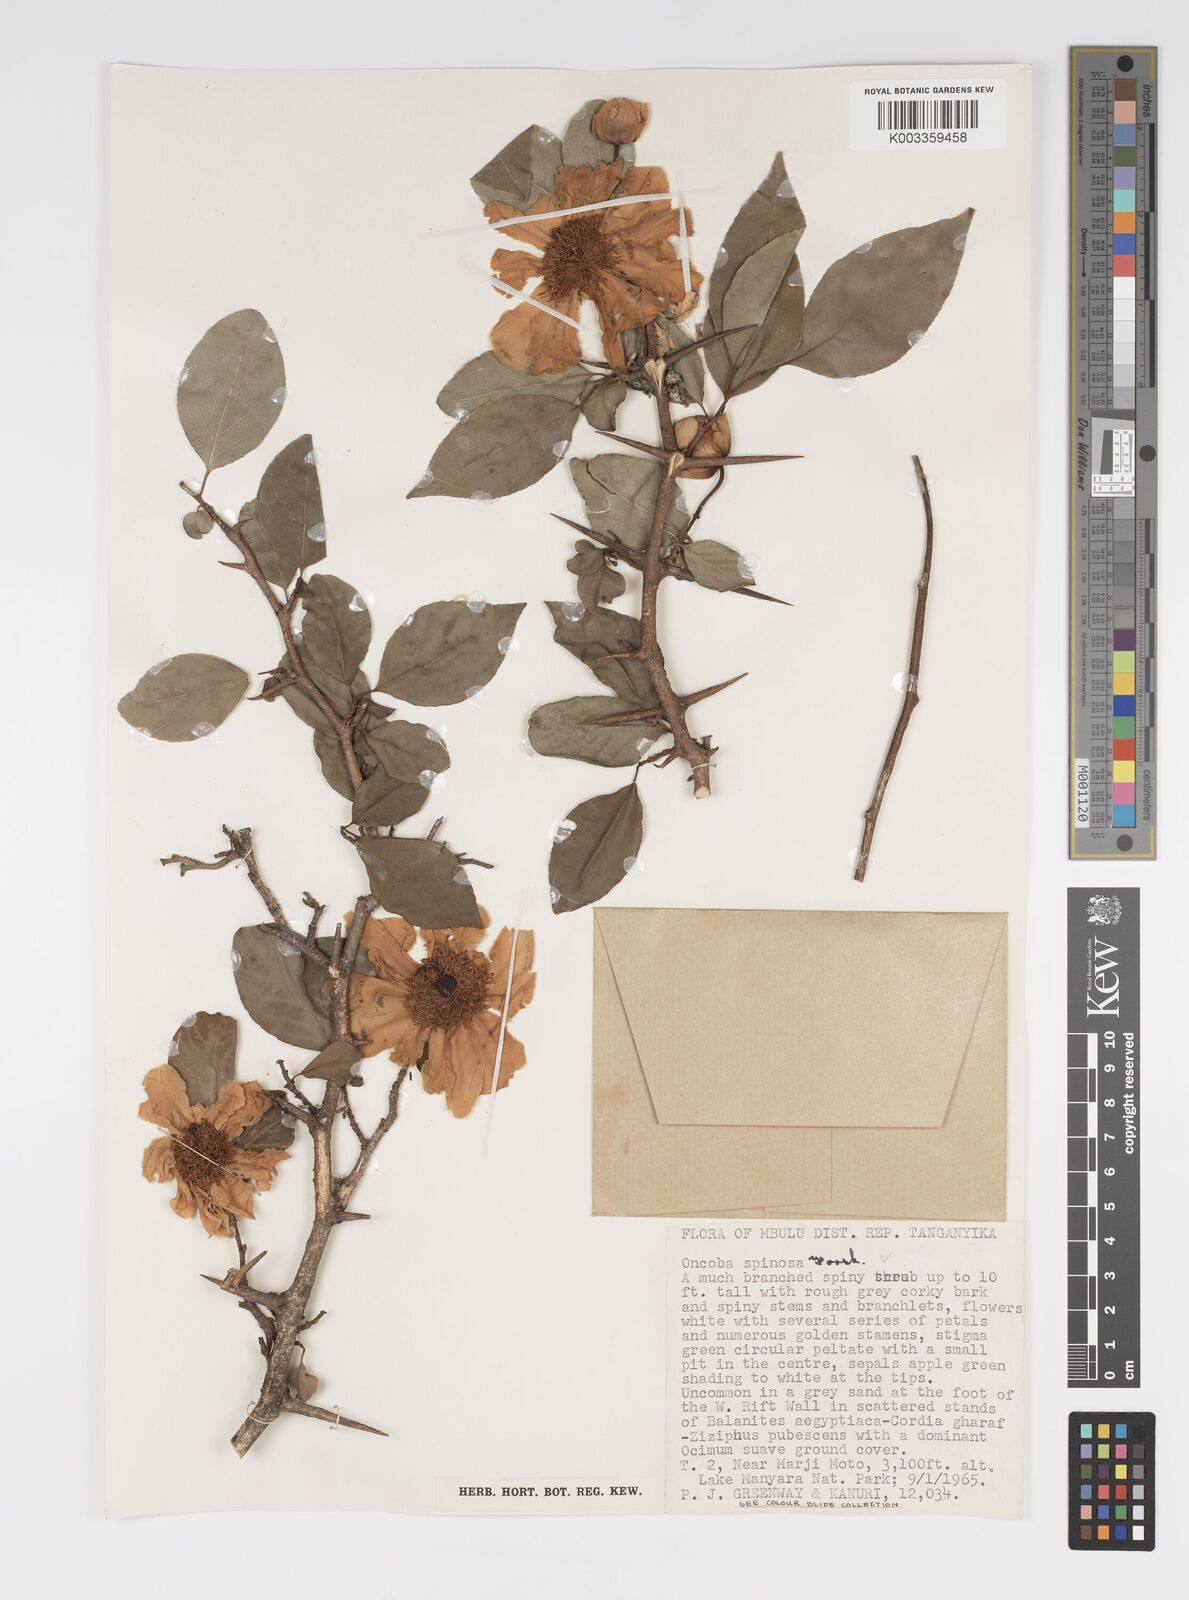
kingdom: Plantae
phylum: Tracheophyta
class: Magnoliopsida
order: Malpighiales
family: Salicaceae
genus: Oncoba
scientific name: Oncoba spinosa
